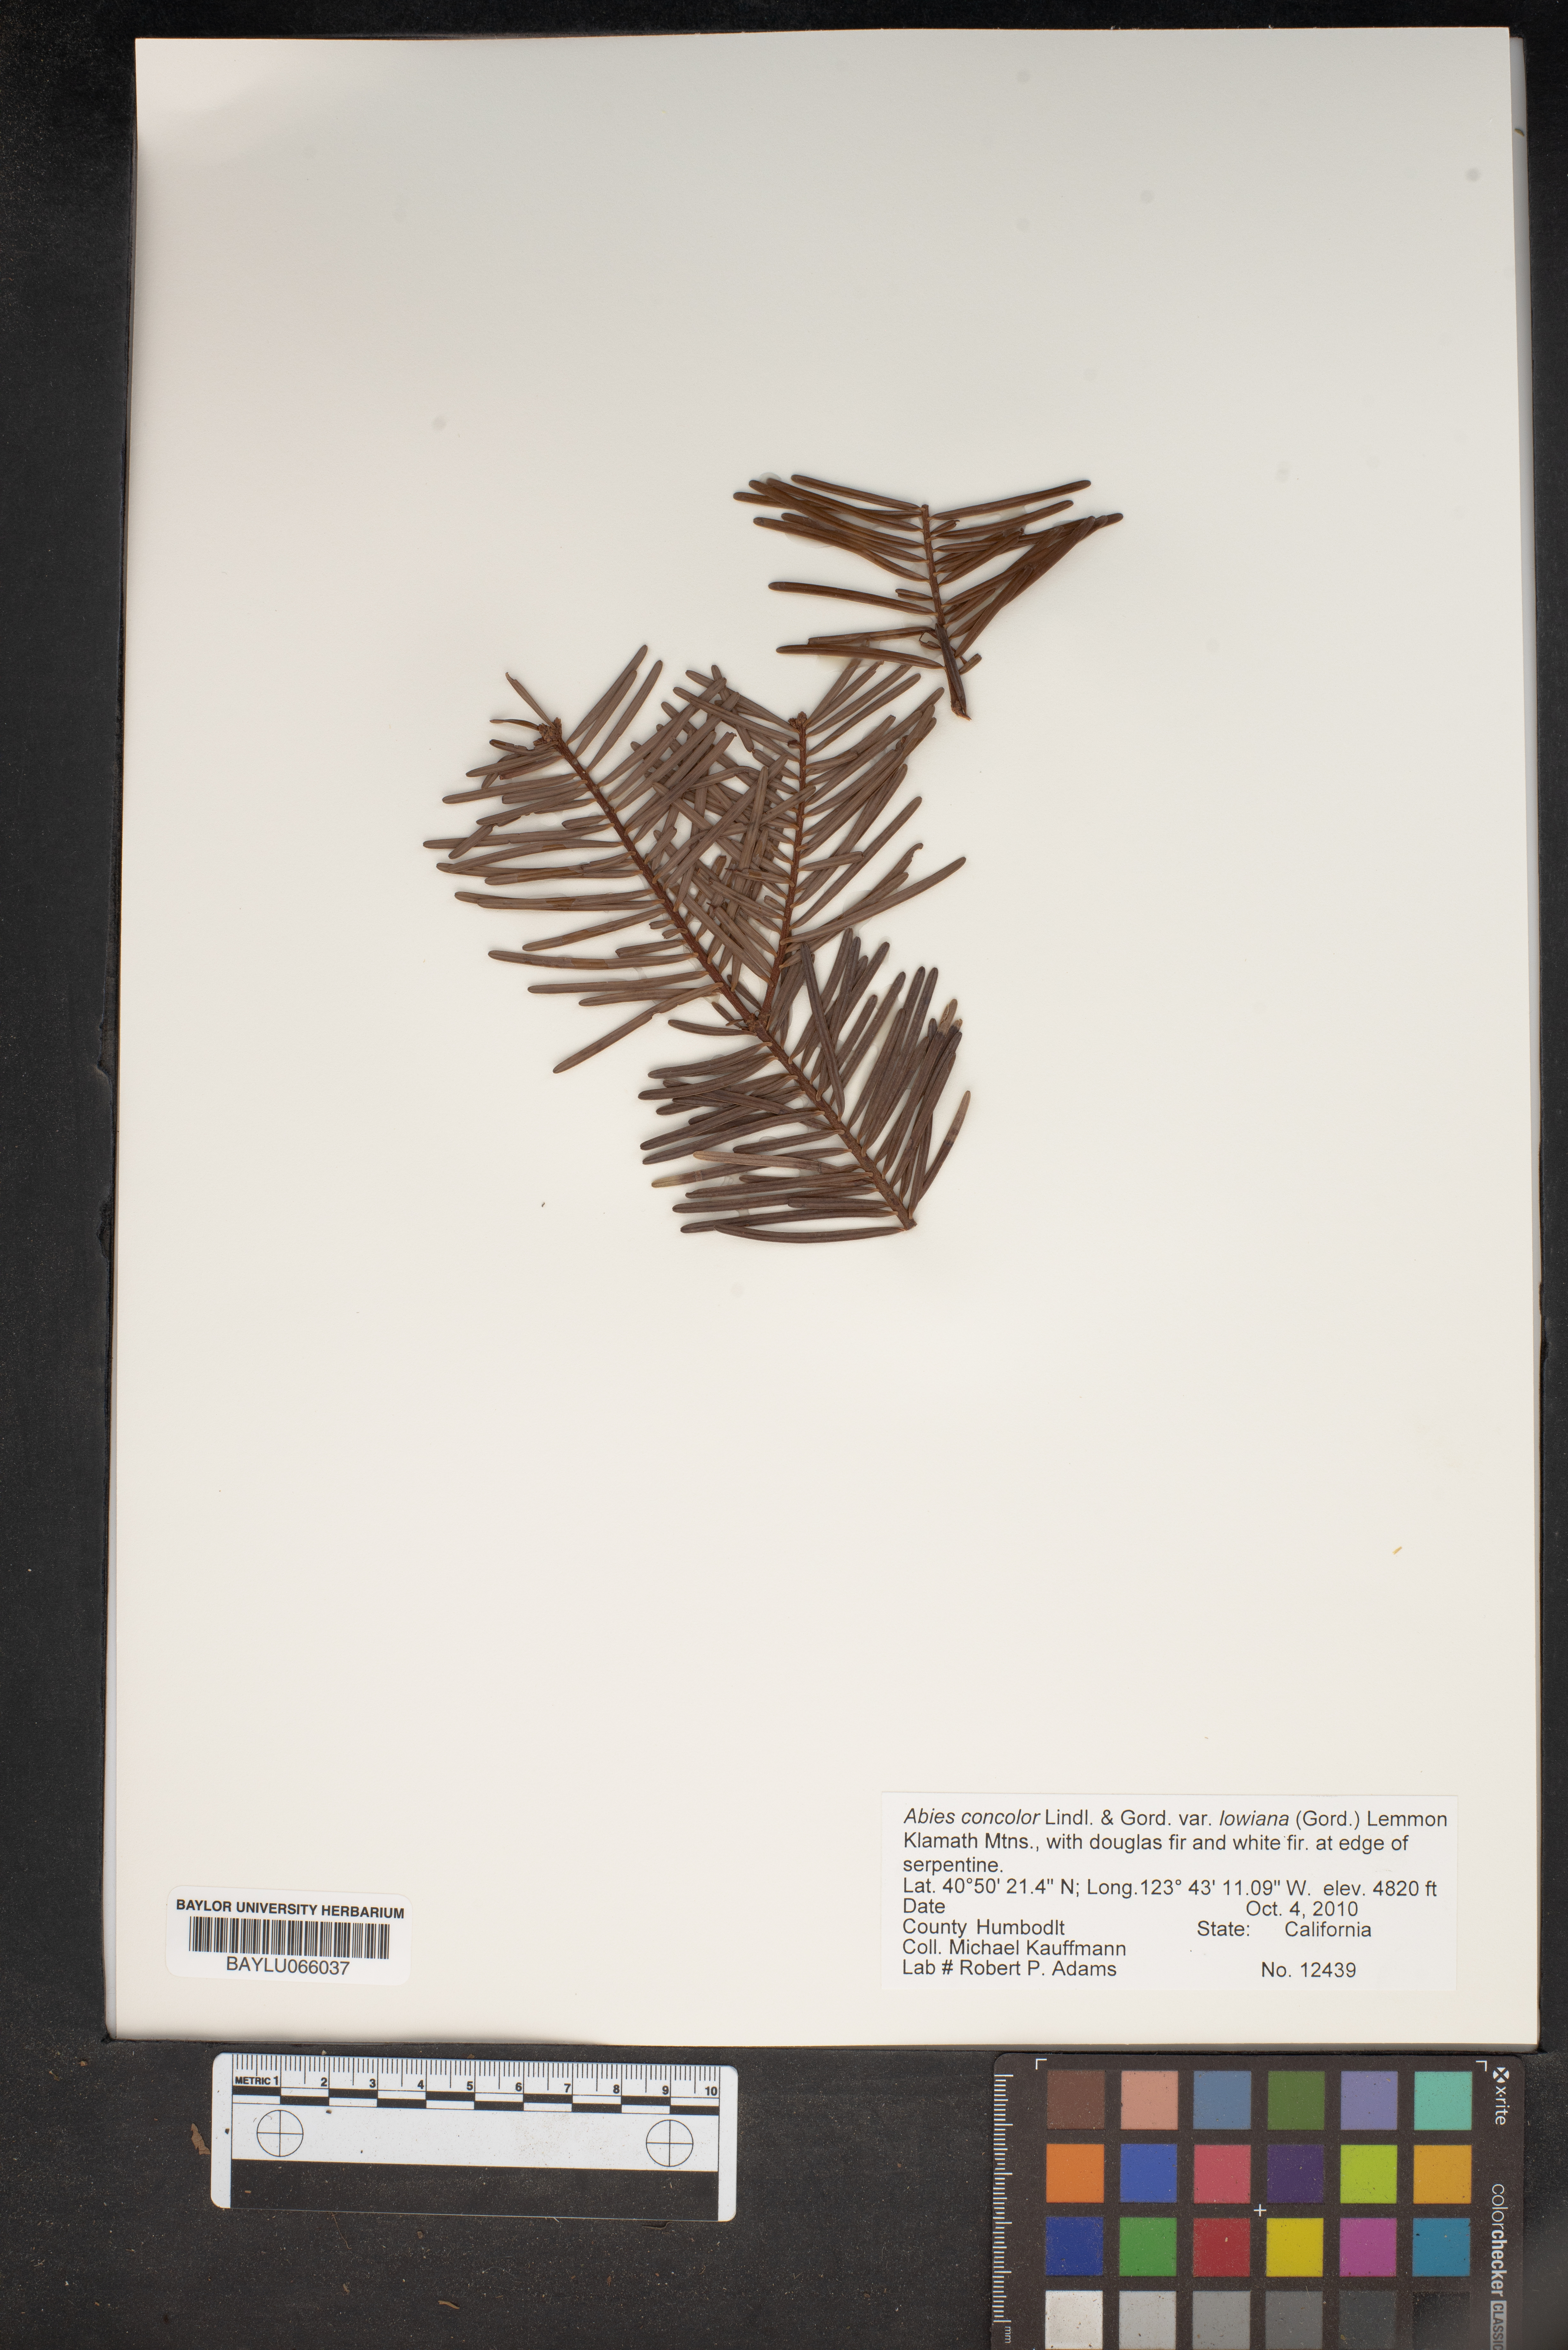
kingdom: Plantae
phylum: Tracheophyta
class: Pinopsida
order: Pinales
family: Pinaceae
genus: Abies
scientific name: Abies concolor
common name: Colorado fir
